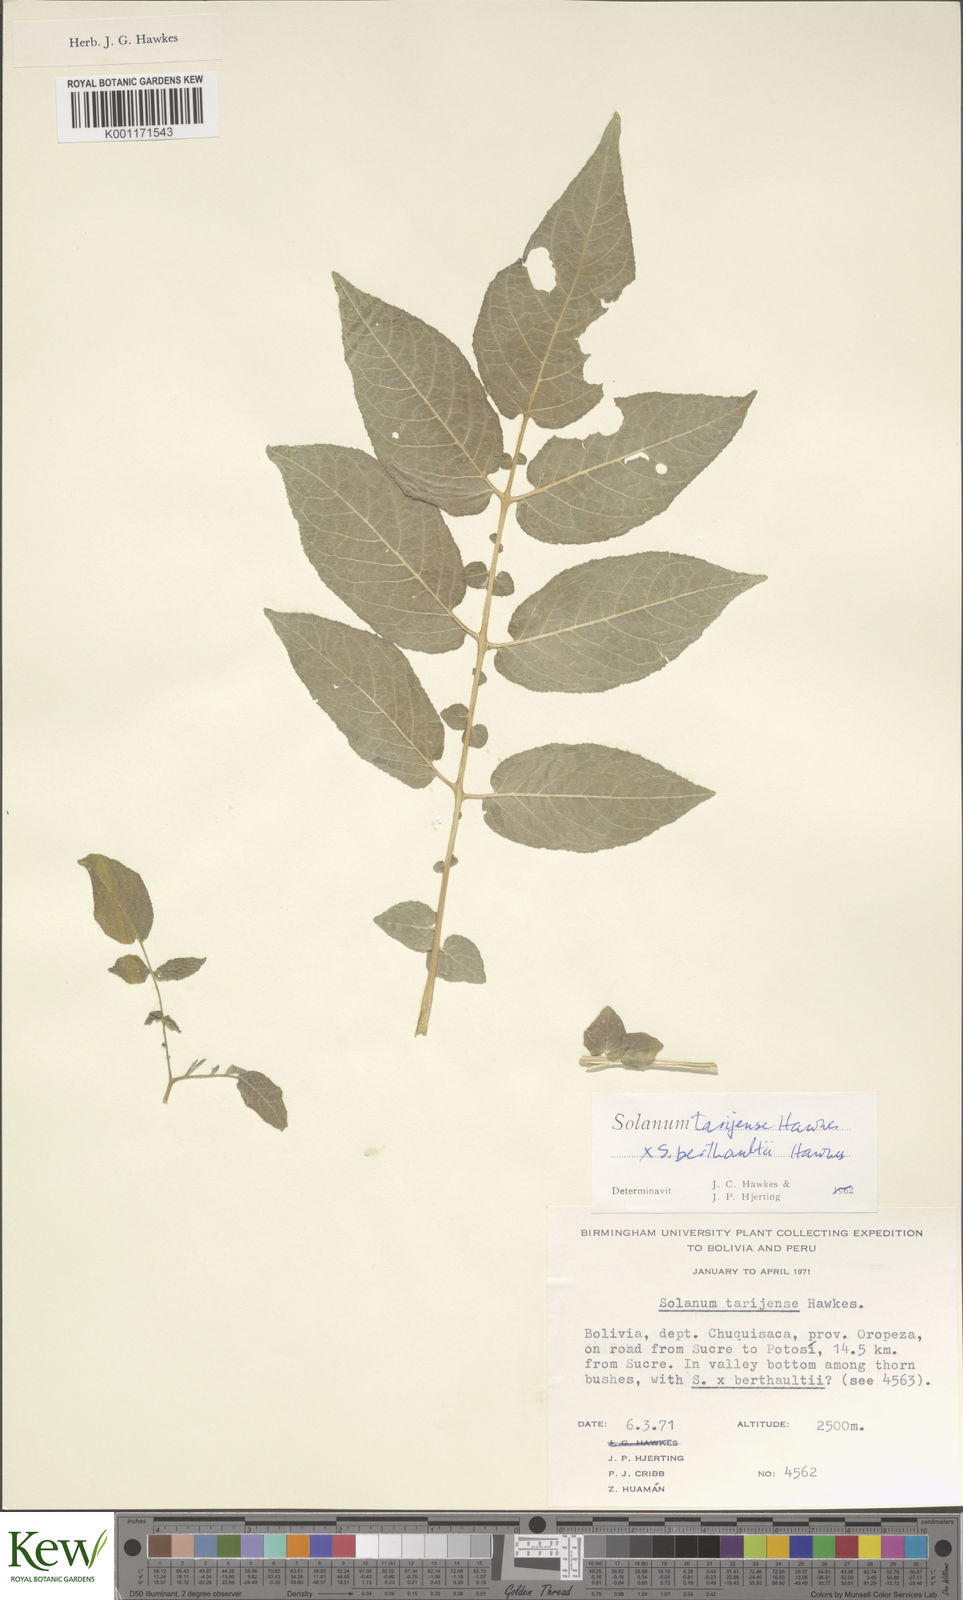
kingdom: Plantae
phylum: Tracheophyta
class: Magnoliopsida
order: Solanales
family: Solanaceae
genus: Solanum
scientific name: Solanum tarijense
